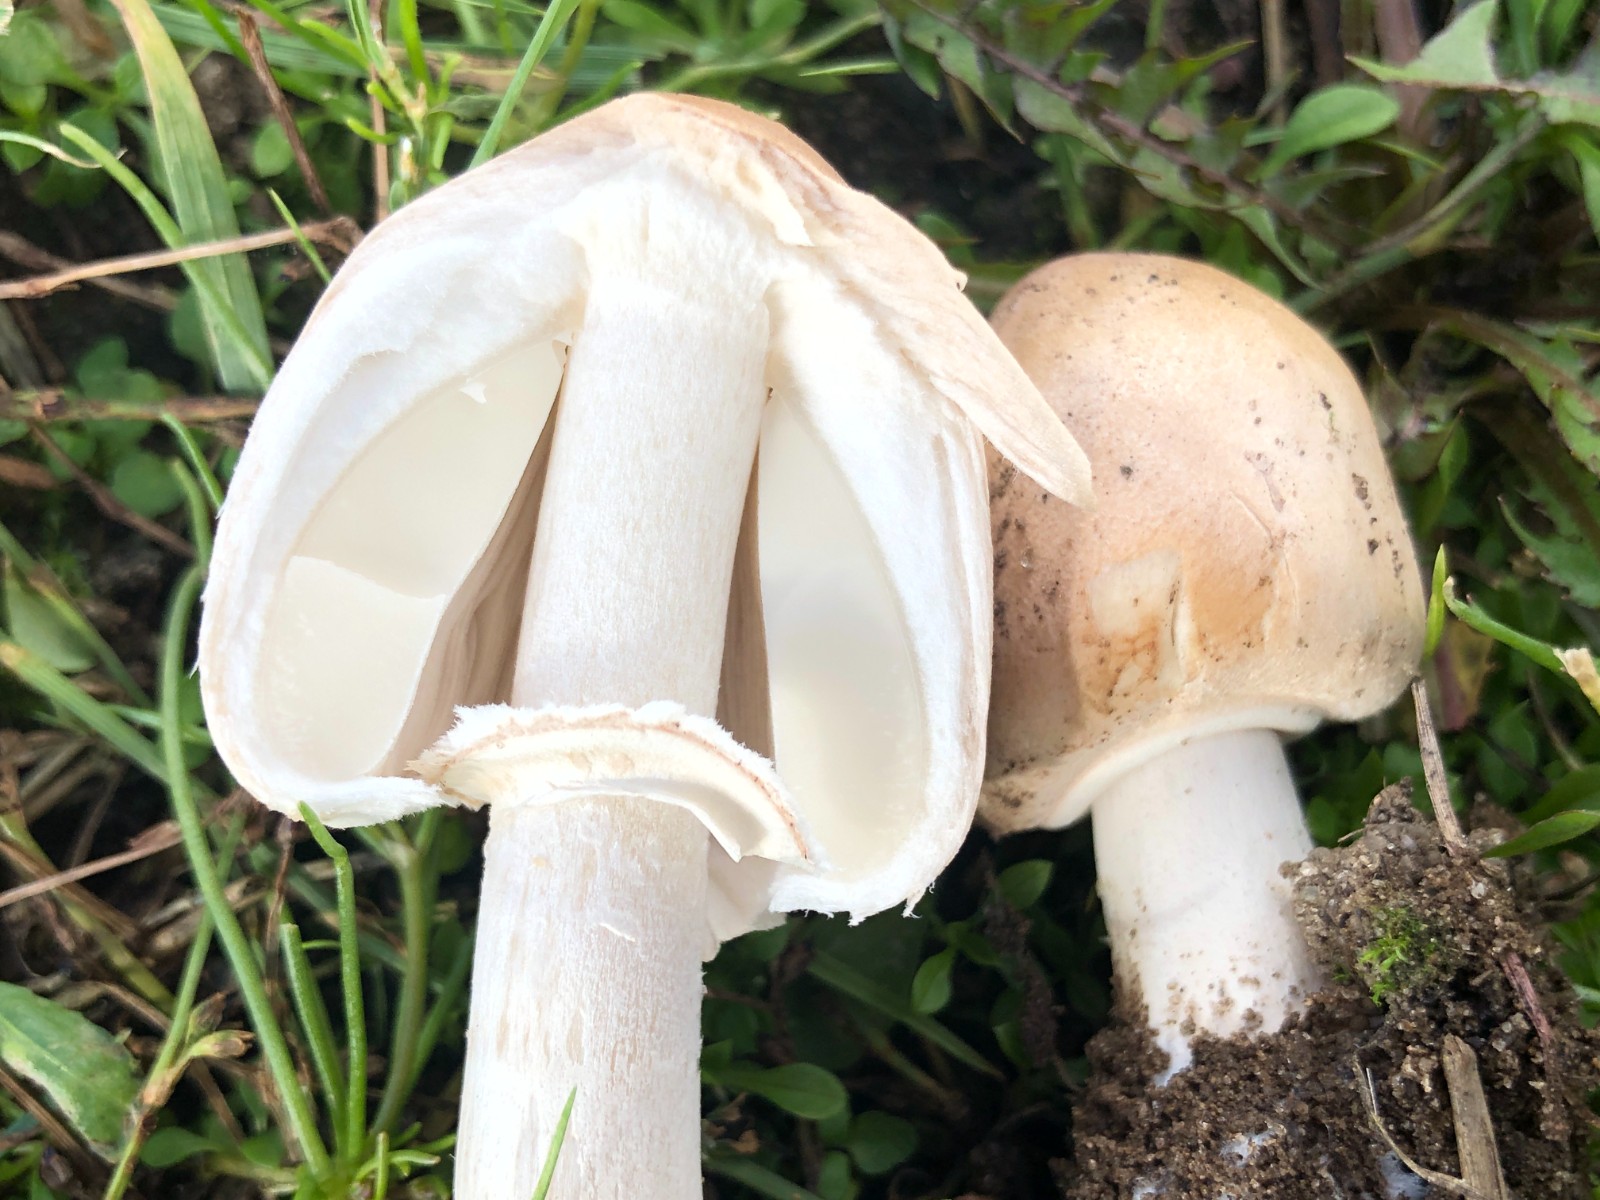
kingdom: Fungi
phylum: Basidiomycota
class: Agaricomycetes
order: Agaricales
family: Agaricaceae
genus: Macrolepiota
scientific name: Macrolepiota excoriata
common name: mark-kæmpeparasolhat
